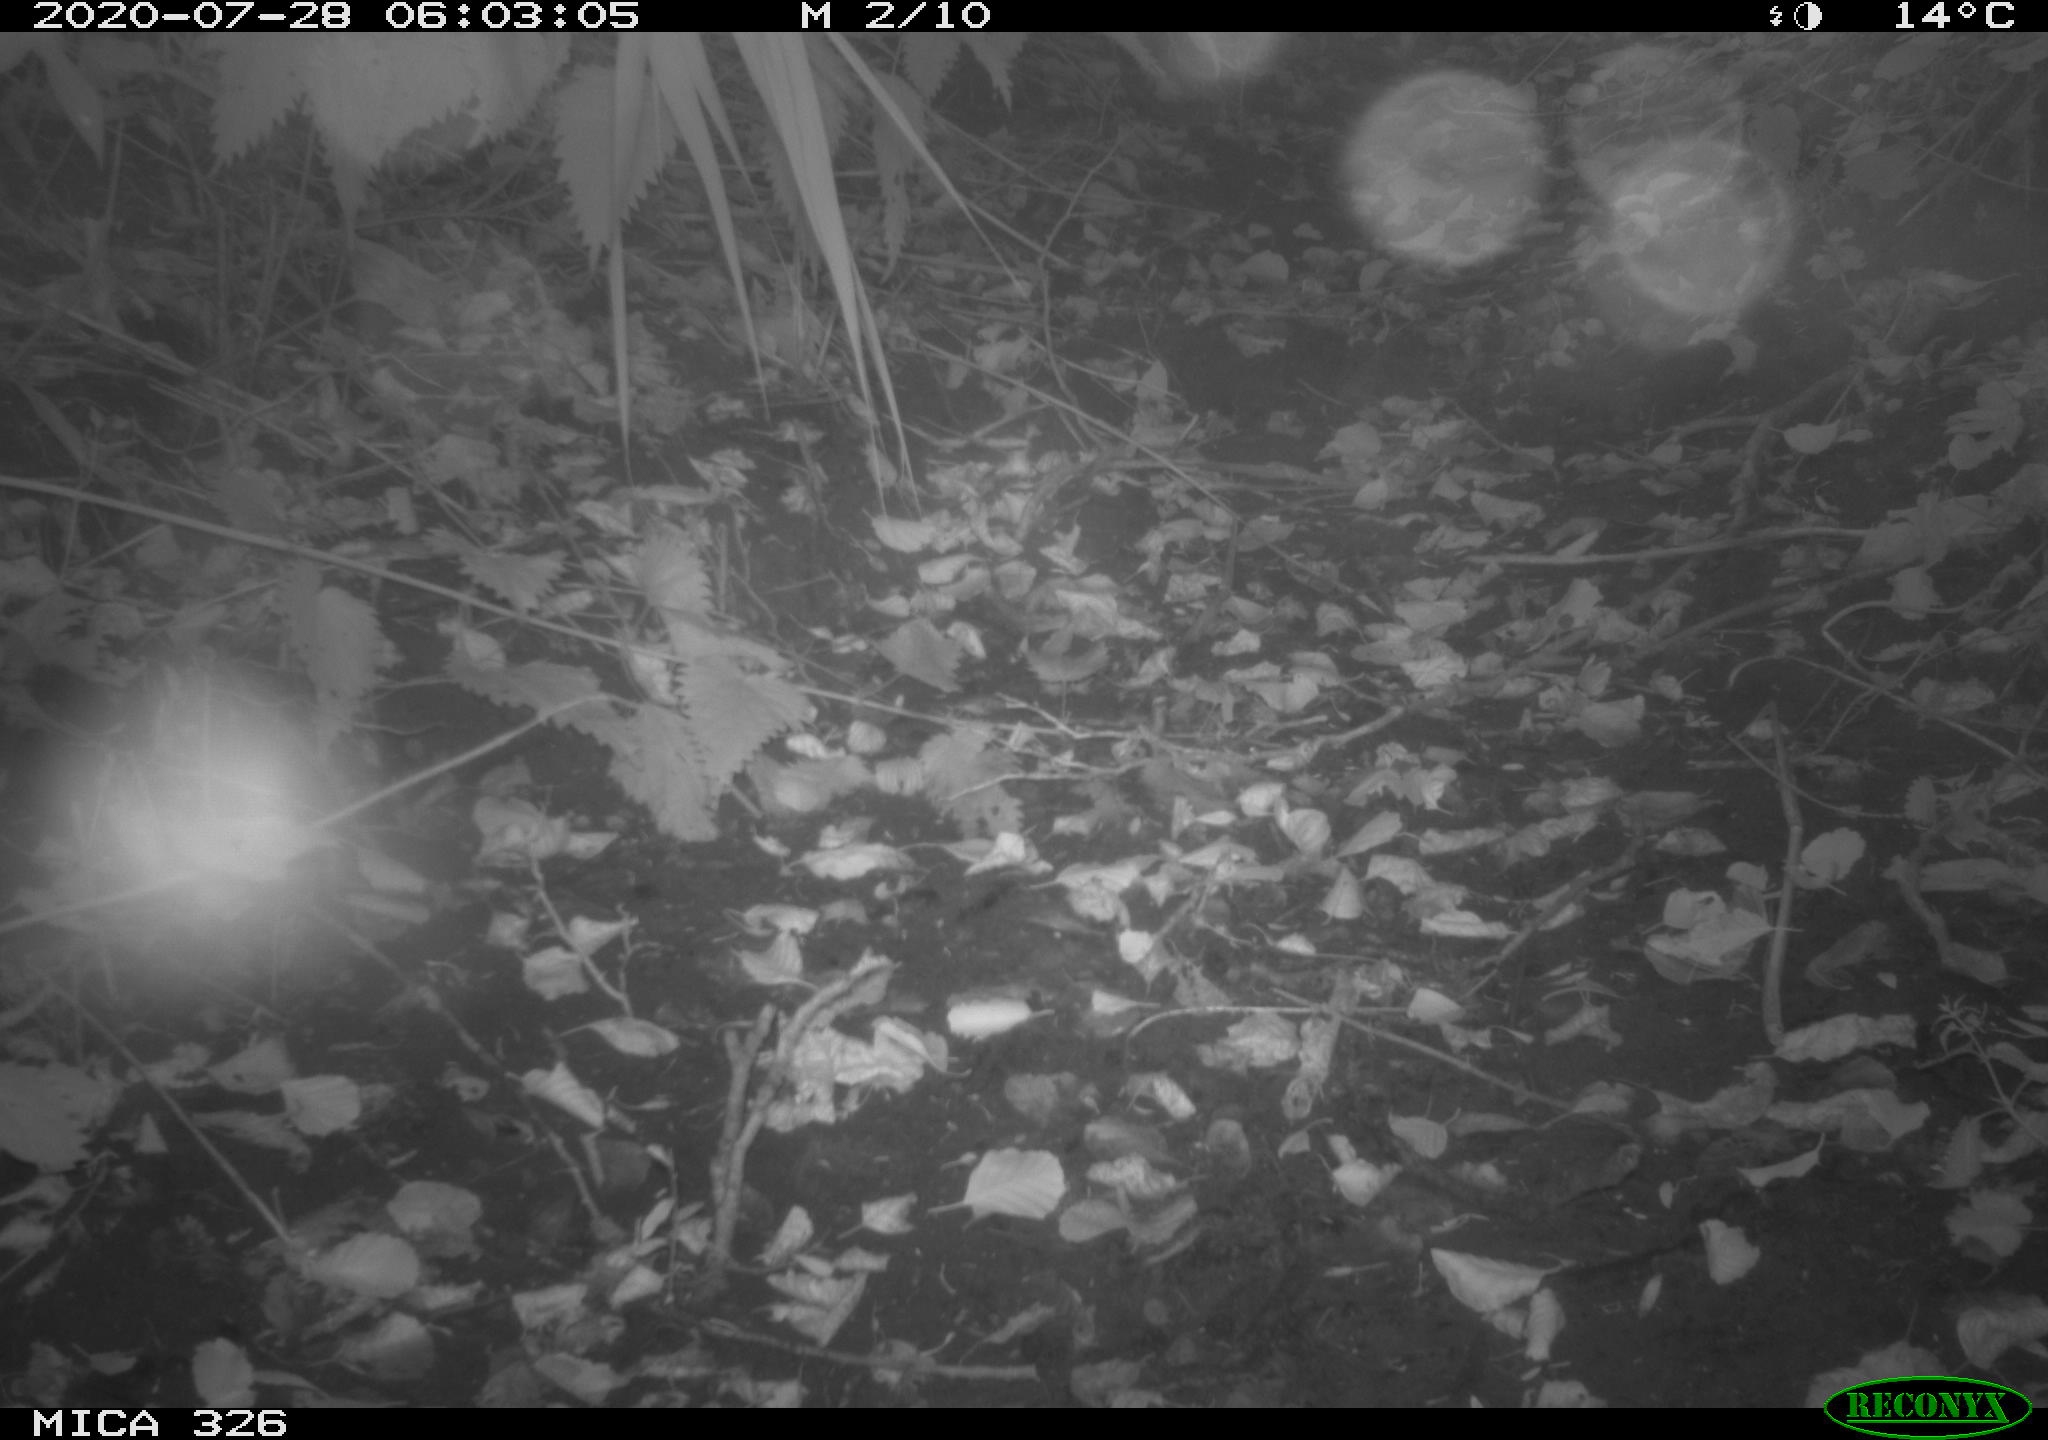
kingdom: Animalia
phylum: Chordata
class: Mammalia
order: Rodentia
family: Muridae
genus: Rattus
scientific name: Rattus norvegicus
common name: Brown rat
